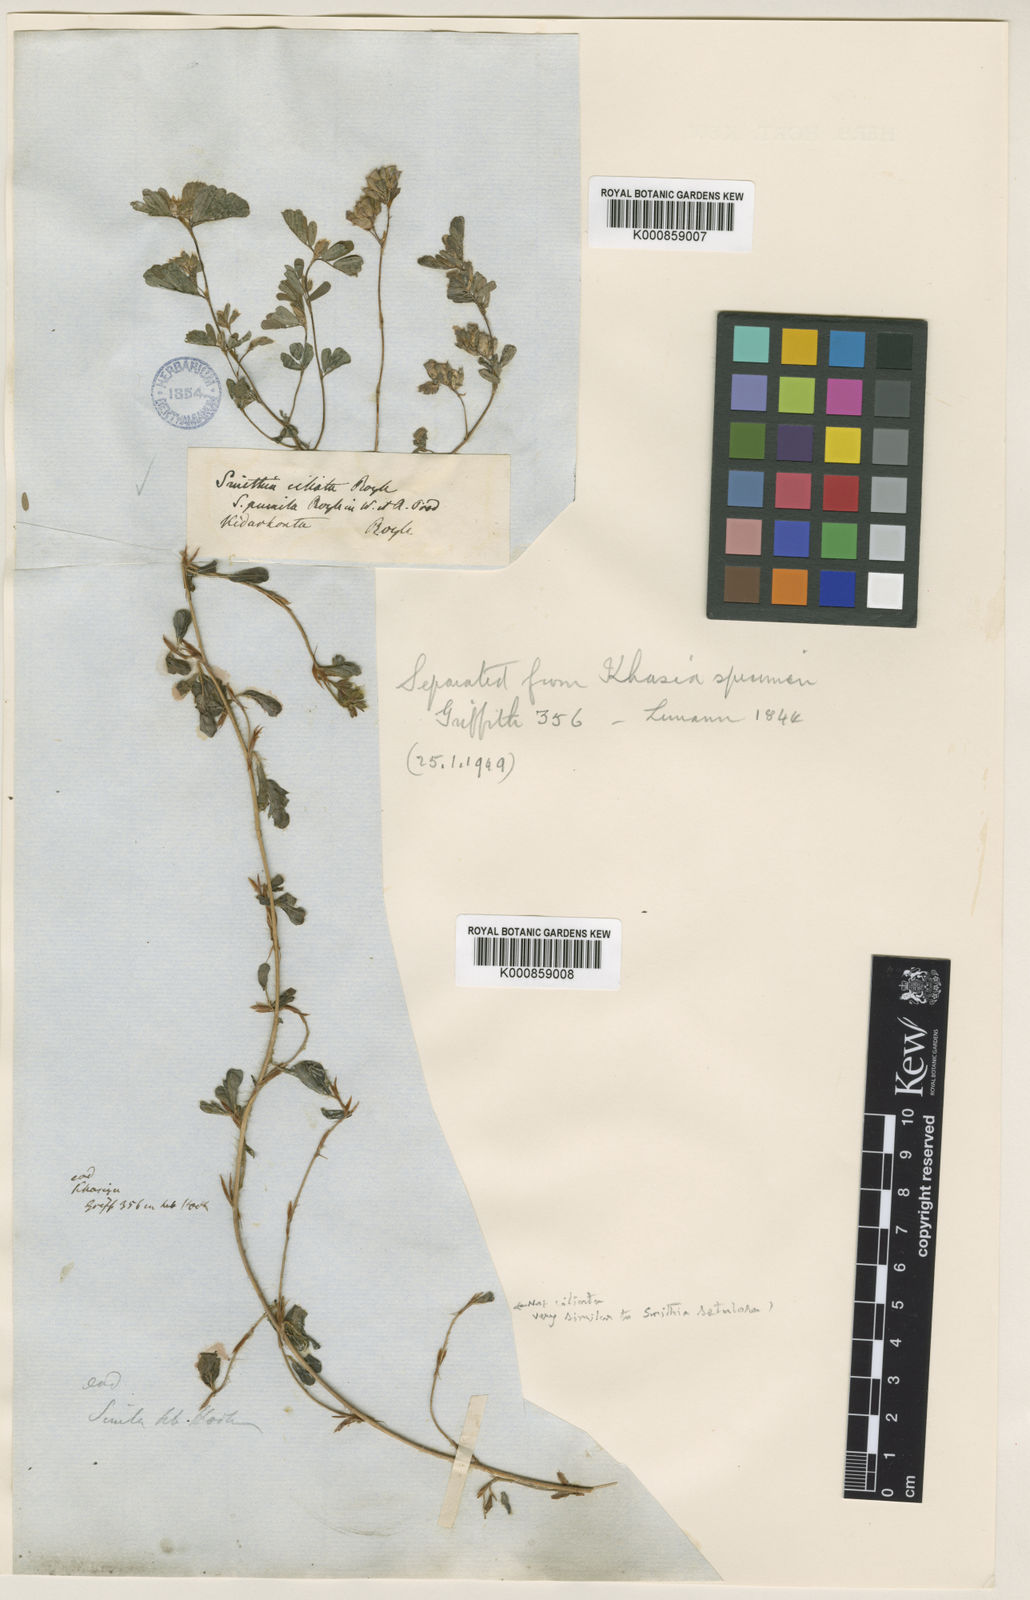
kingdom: Plantae
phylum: Tracheophyta
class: Magnoliopsida
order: Fabales
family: Fabaceae
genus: Smithia
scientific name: Smithia ciliata
